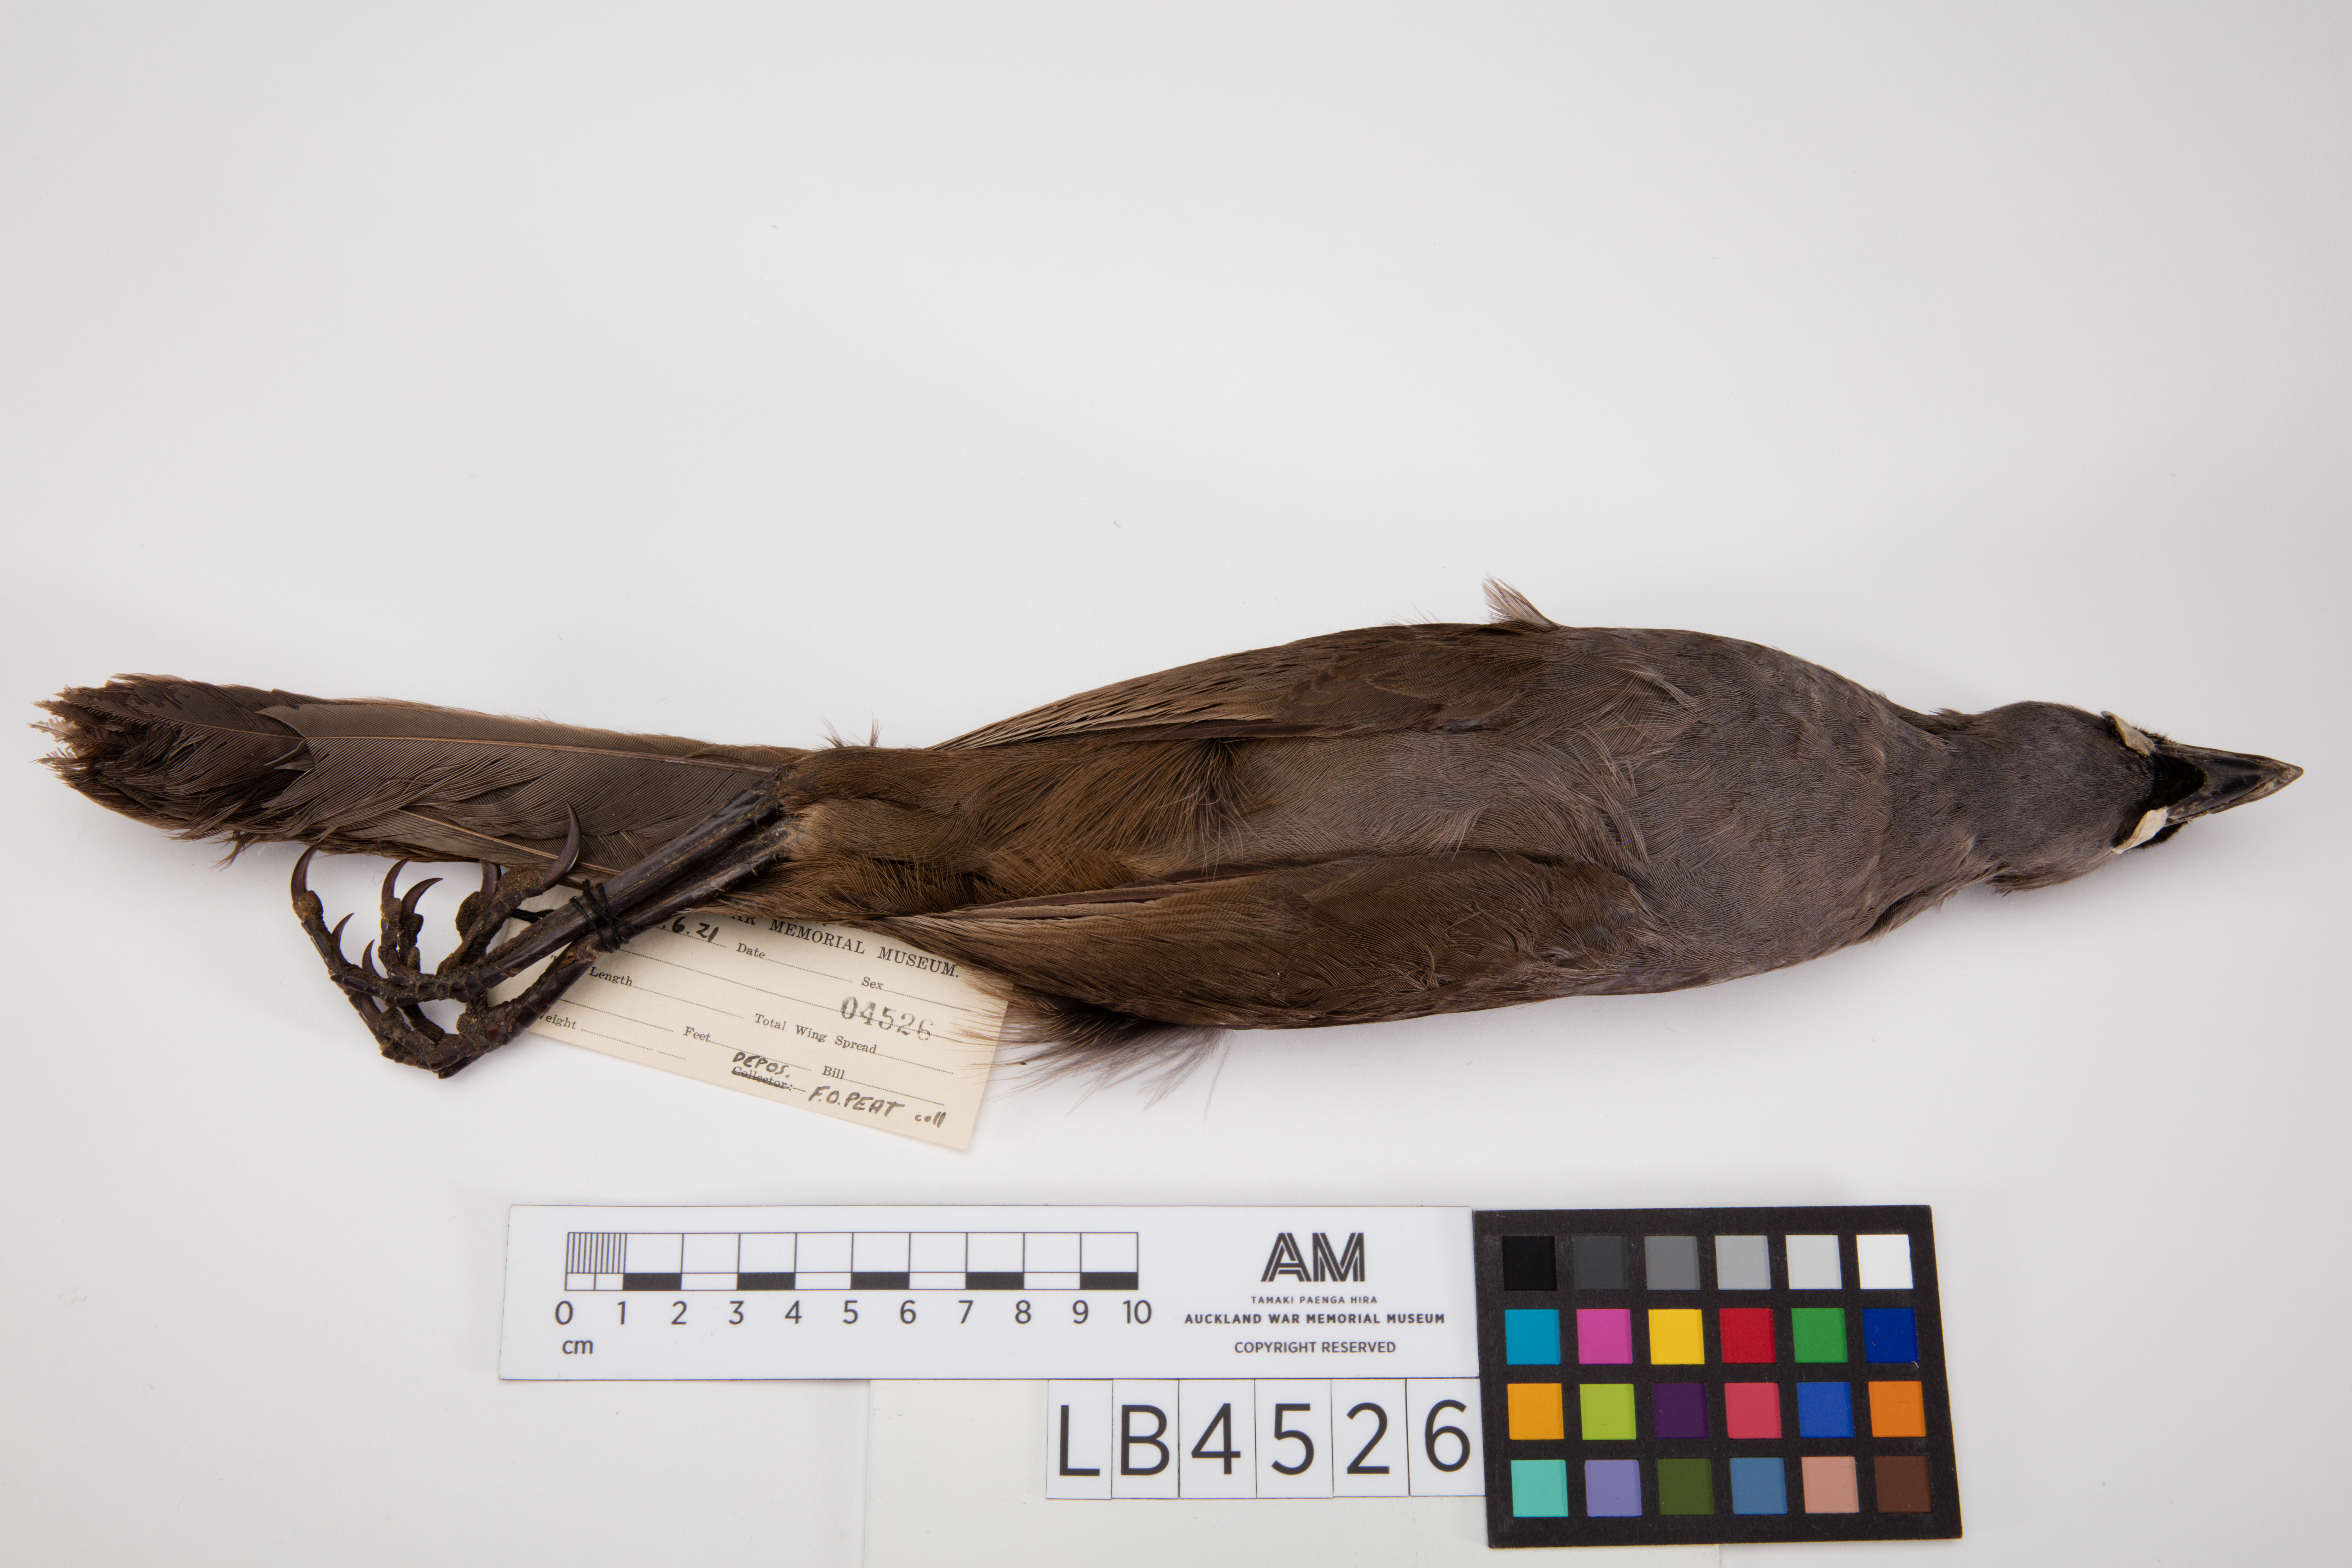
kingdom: Animalia
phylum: Chordata
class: Aves
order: Passeriformes
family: Callaeatidae
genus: Callaeas
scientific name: Callaeas cinereus
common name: South island kokako
